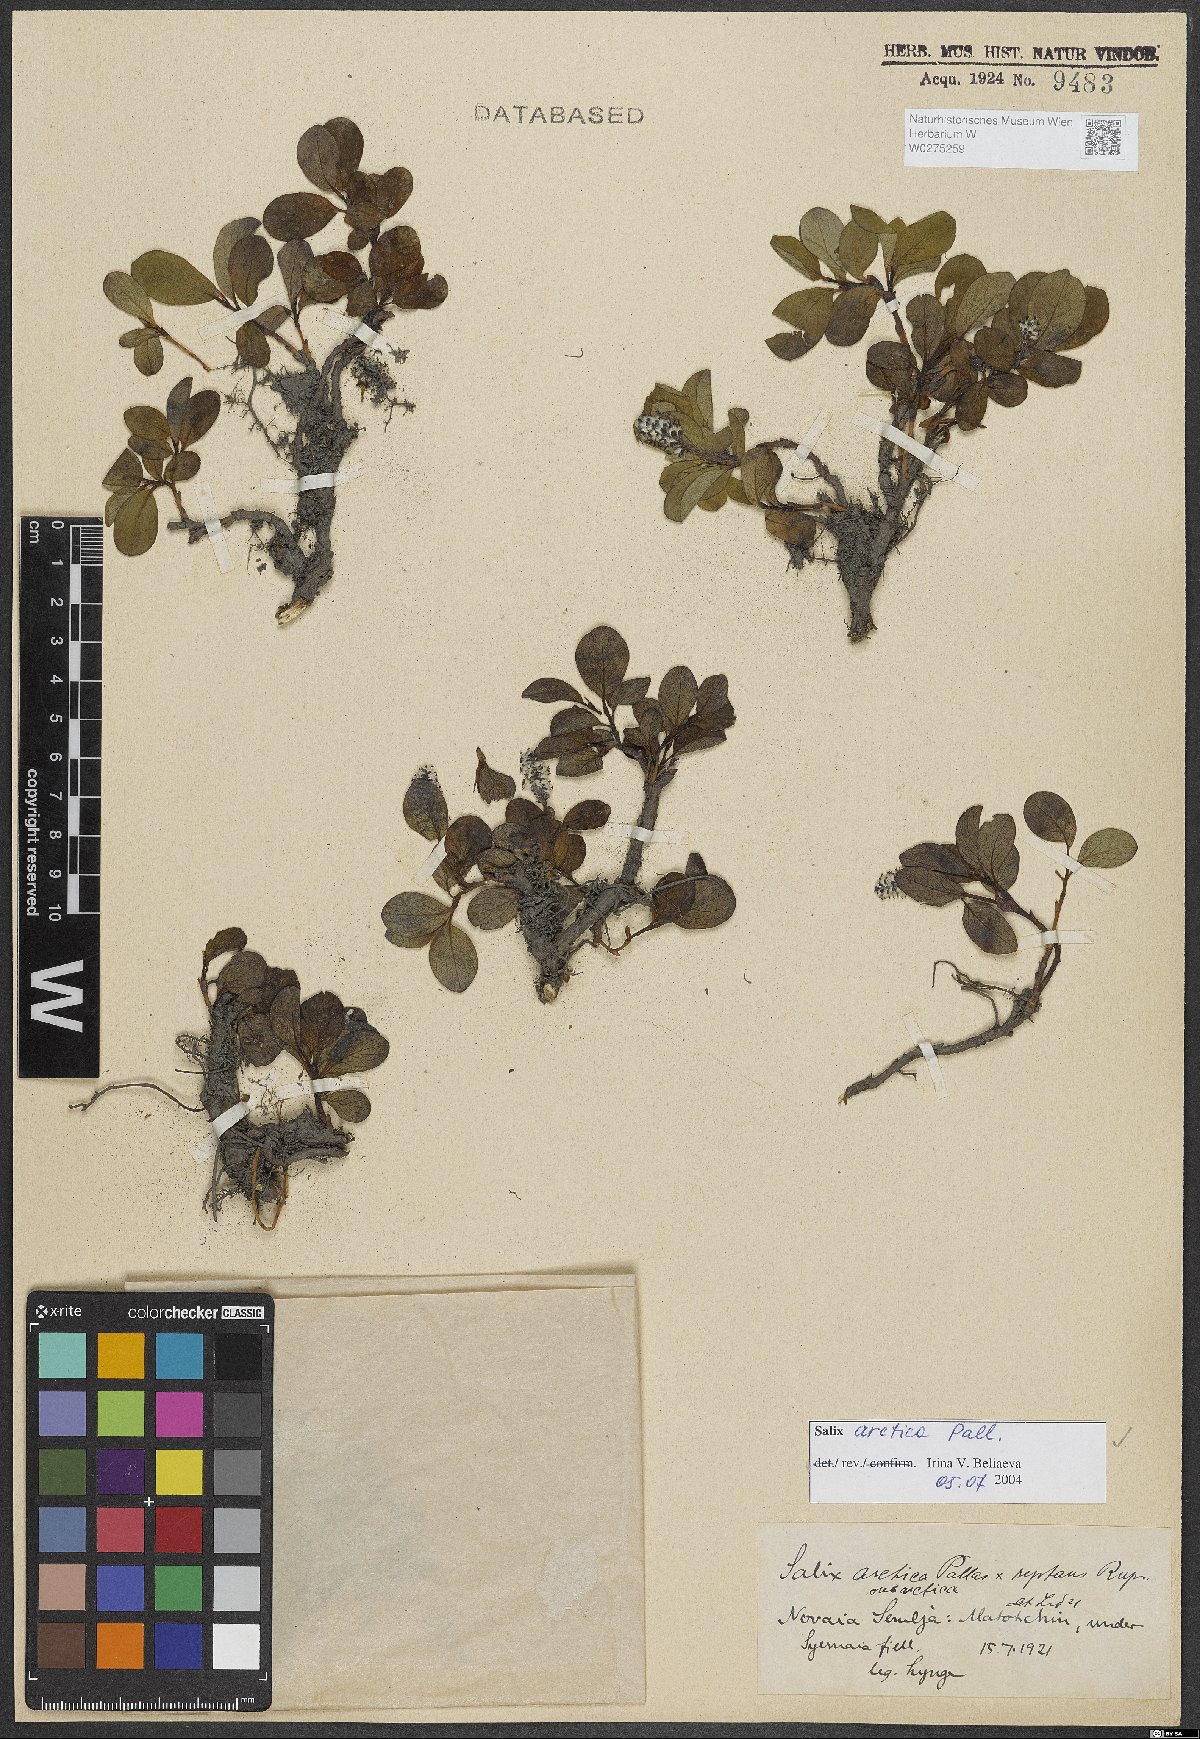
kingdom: Plantae
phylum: Tracheophyta
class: Magnoliopsida
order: Malpighiales
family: Salicaceae
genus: Salix
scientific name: Salix arctica
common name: Arctic willow
